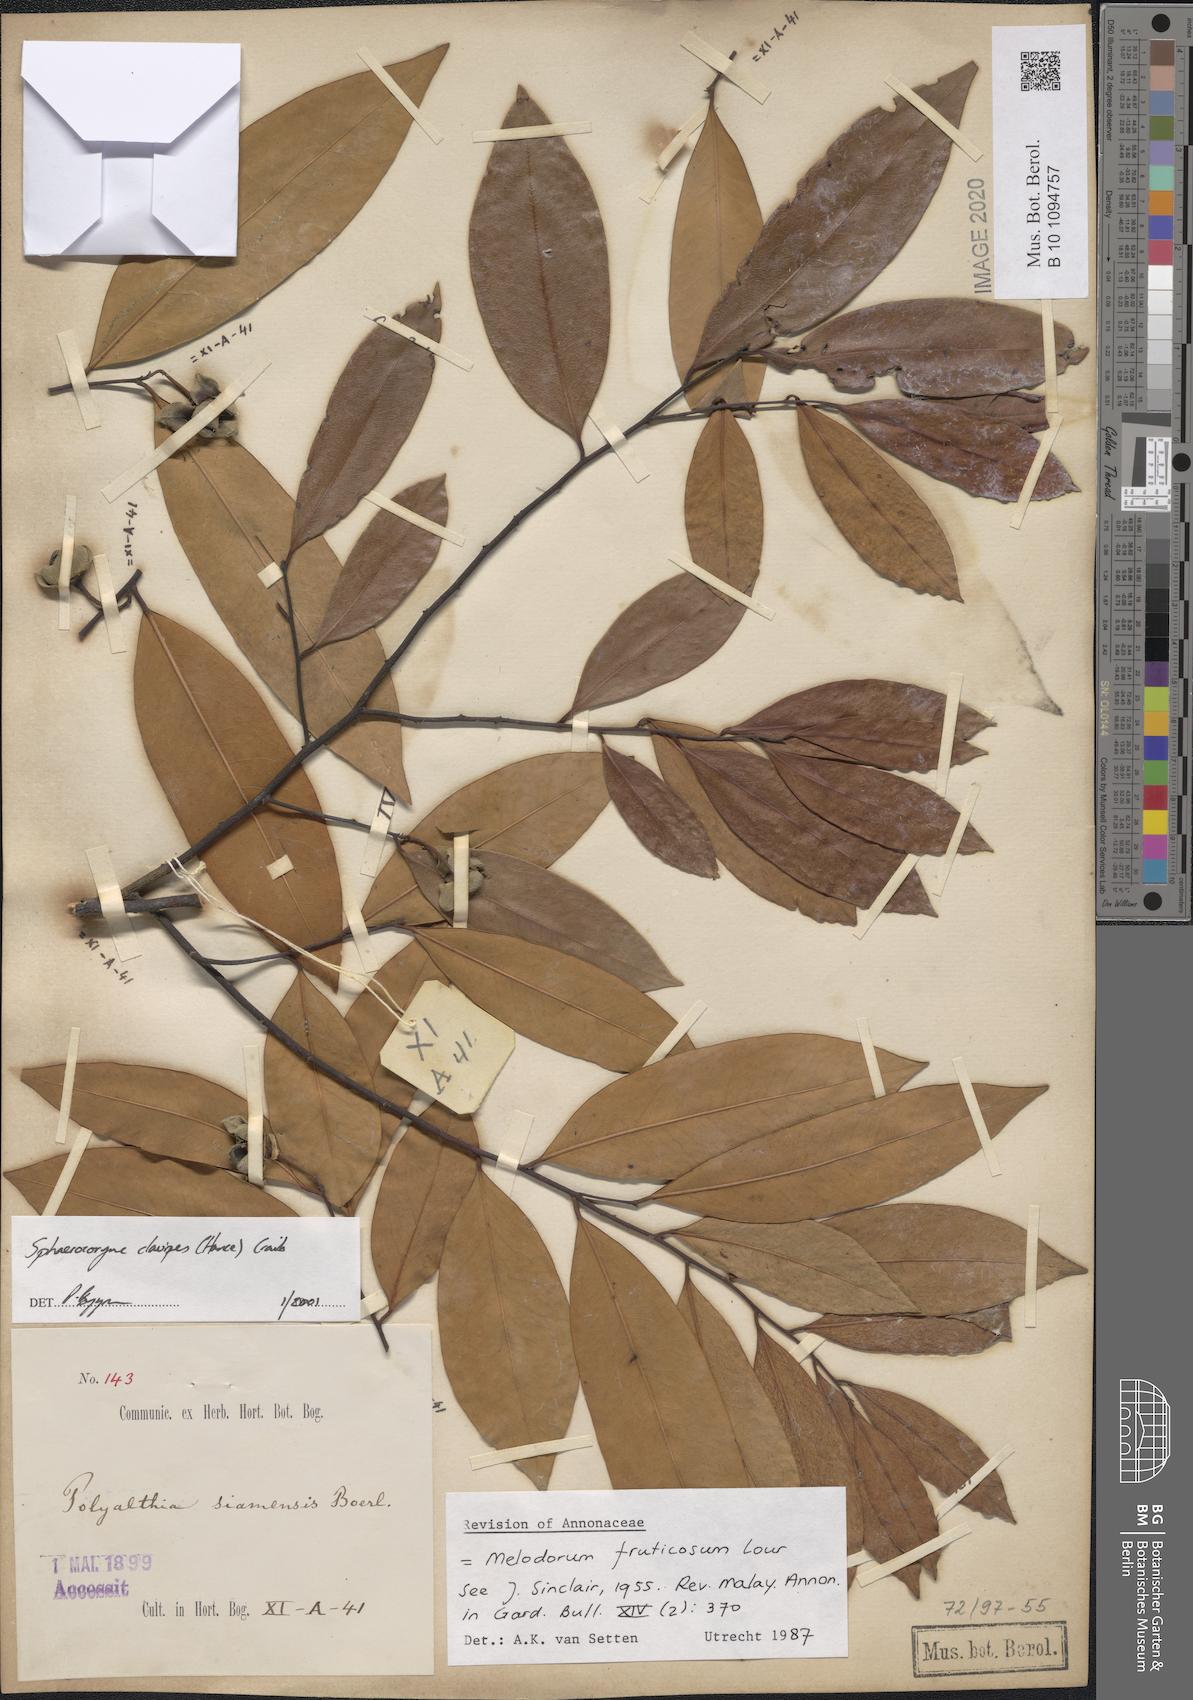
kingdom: Plantae
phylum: Tracheophyta
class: Magnoliopsida
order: Magnoliales
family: Annonaceae
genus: Sphaerocoryne
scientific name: Sphaerocoryne affinis
